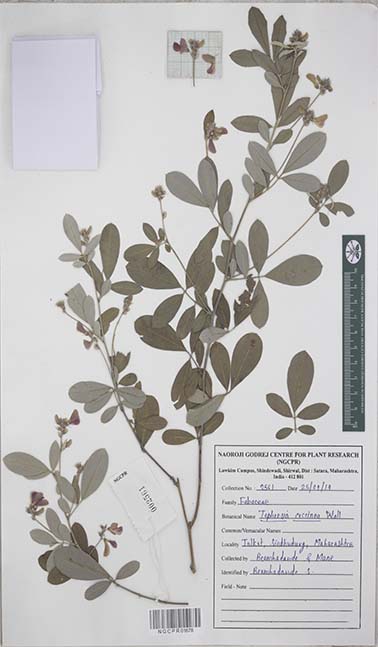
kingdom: Plantae
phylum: Tracheophyta
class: Magnoliopsida
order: Fabales
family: Fabaceae
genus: Tephrosia
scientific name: Tephrosia coccinea
